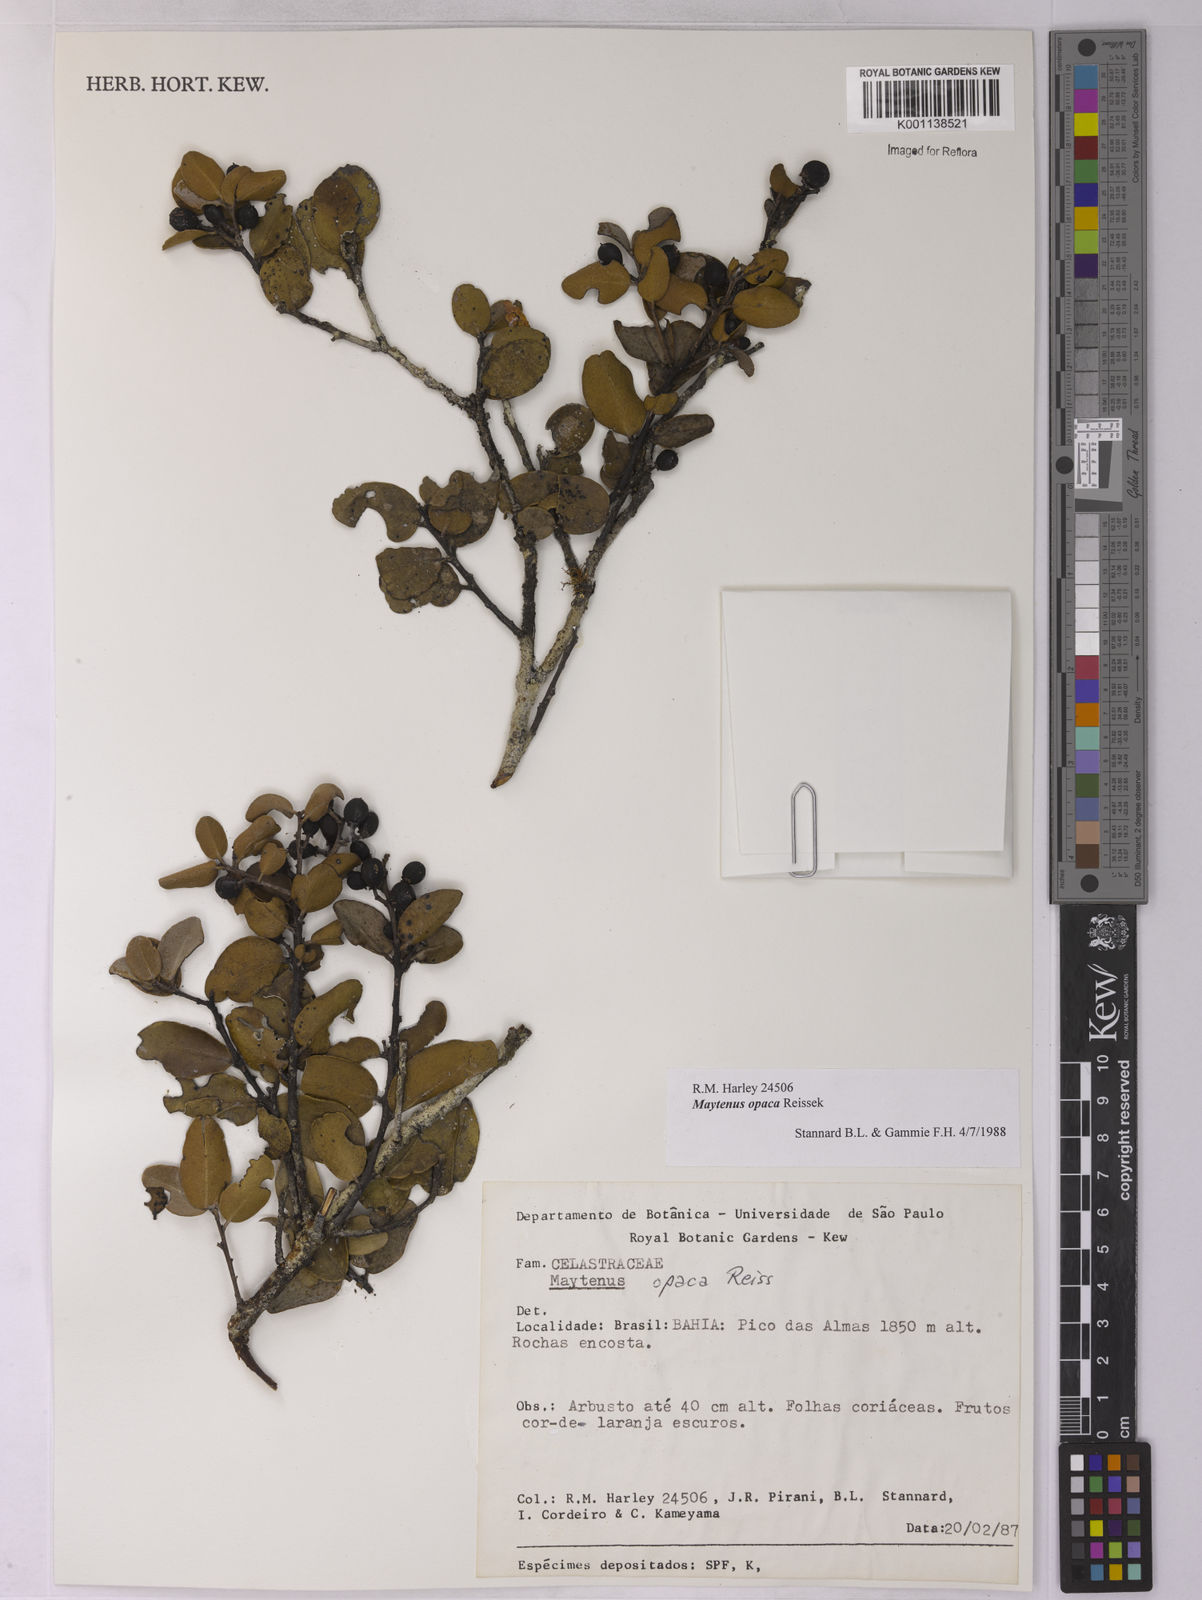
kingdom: Plantae
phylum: Tracheophyta
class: Magnoliopsida
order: Celastrales
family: Celastraceae
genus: Monteverdia
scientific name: Monteverdia opaca
